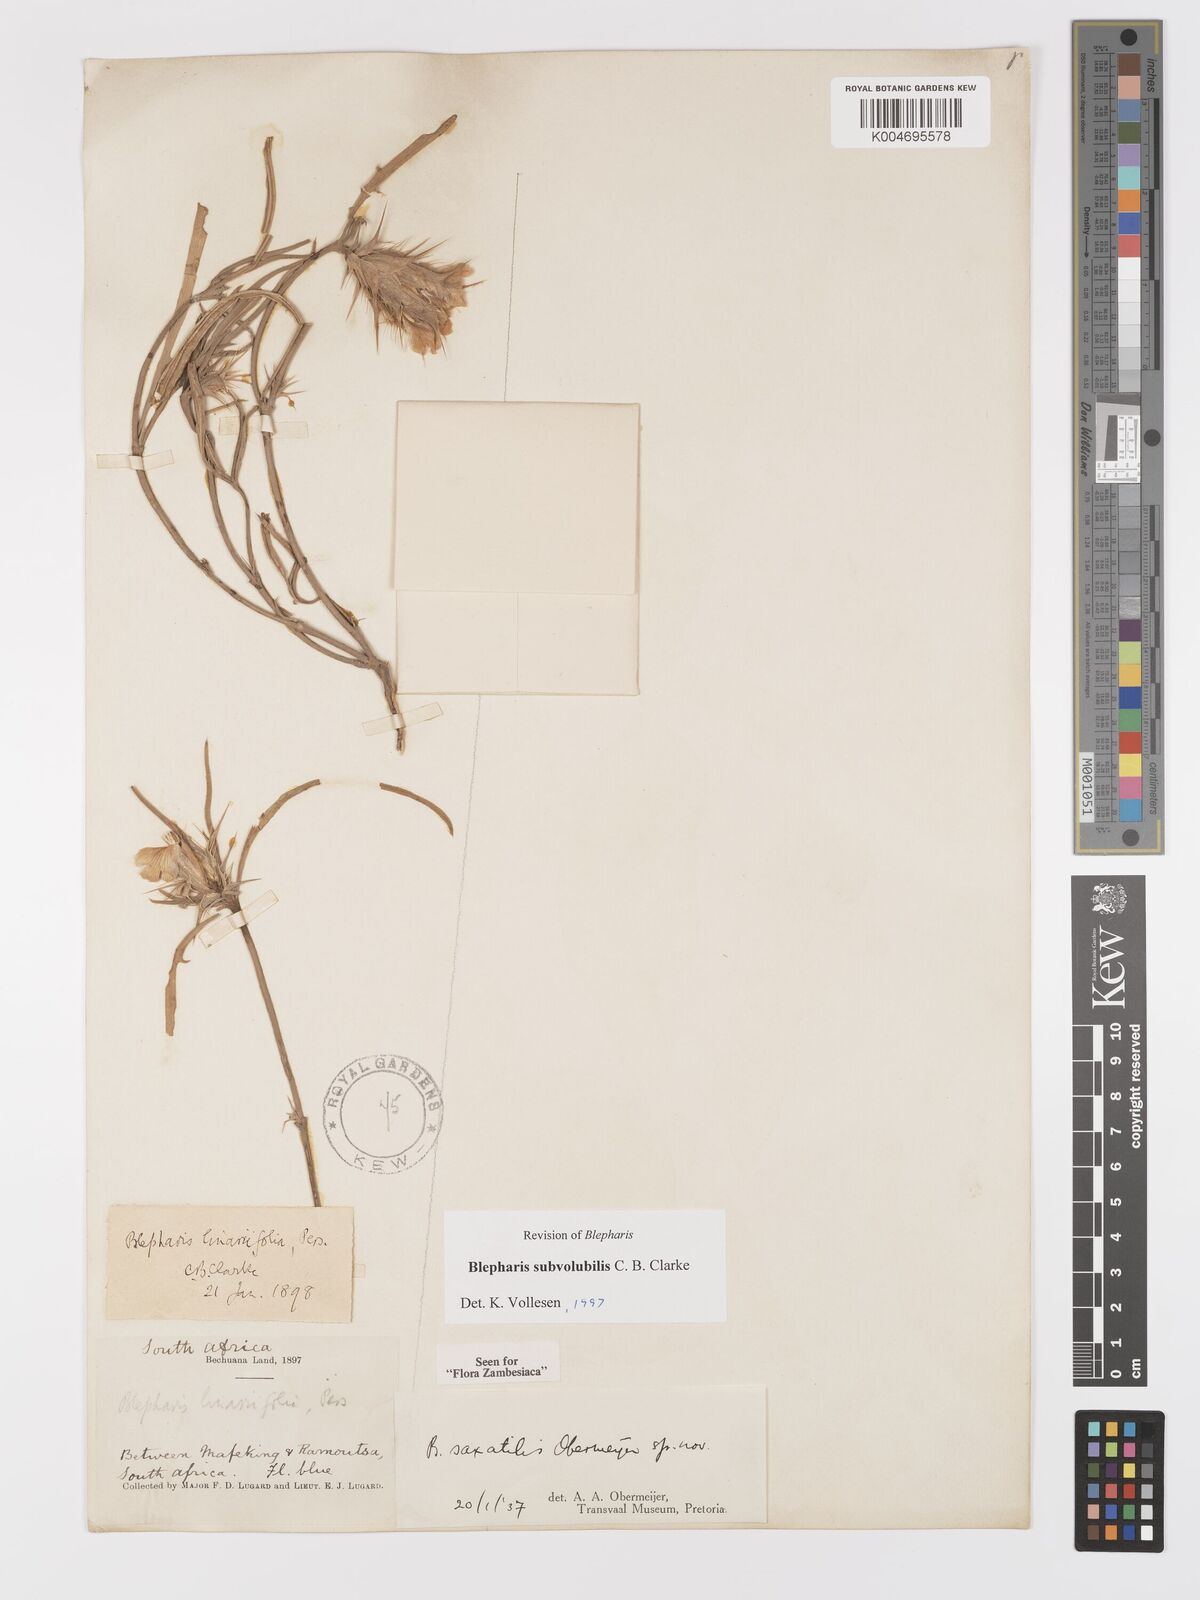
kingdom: Plantae
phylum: Tracheophyta
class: Magnoliopsida
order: Lamiales
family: Acanthaceae
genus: Blepharis
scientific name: Blepharis subvolubilis
